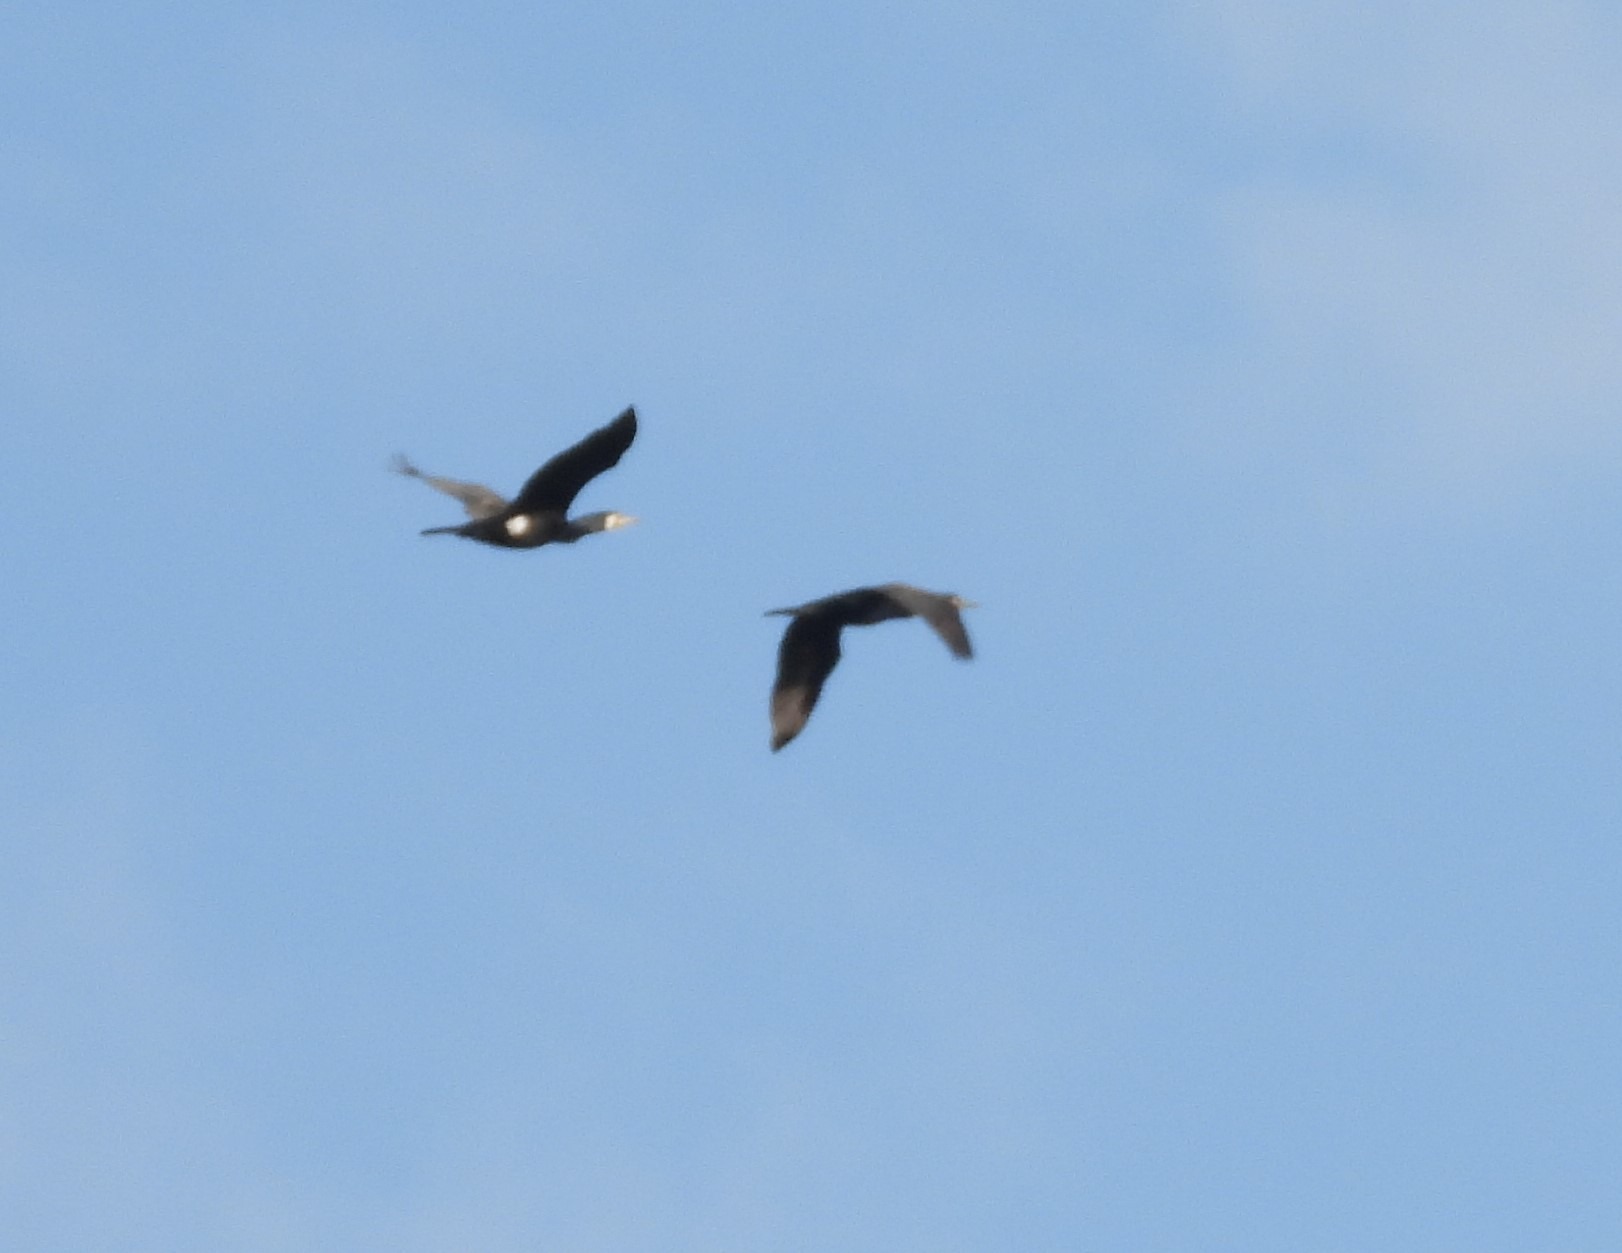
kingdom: Animalia
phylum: Chordata
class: Aves
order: Suliformes
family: Phalacrocoracidae
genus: Phalacrocorax
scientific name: Phalacrocorax carbo
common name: Skarv
